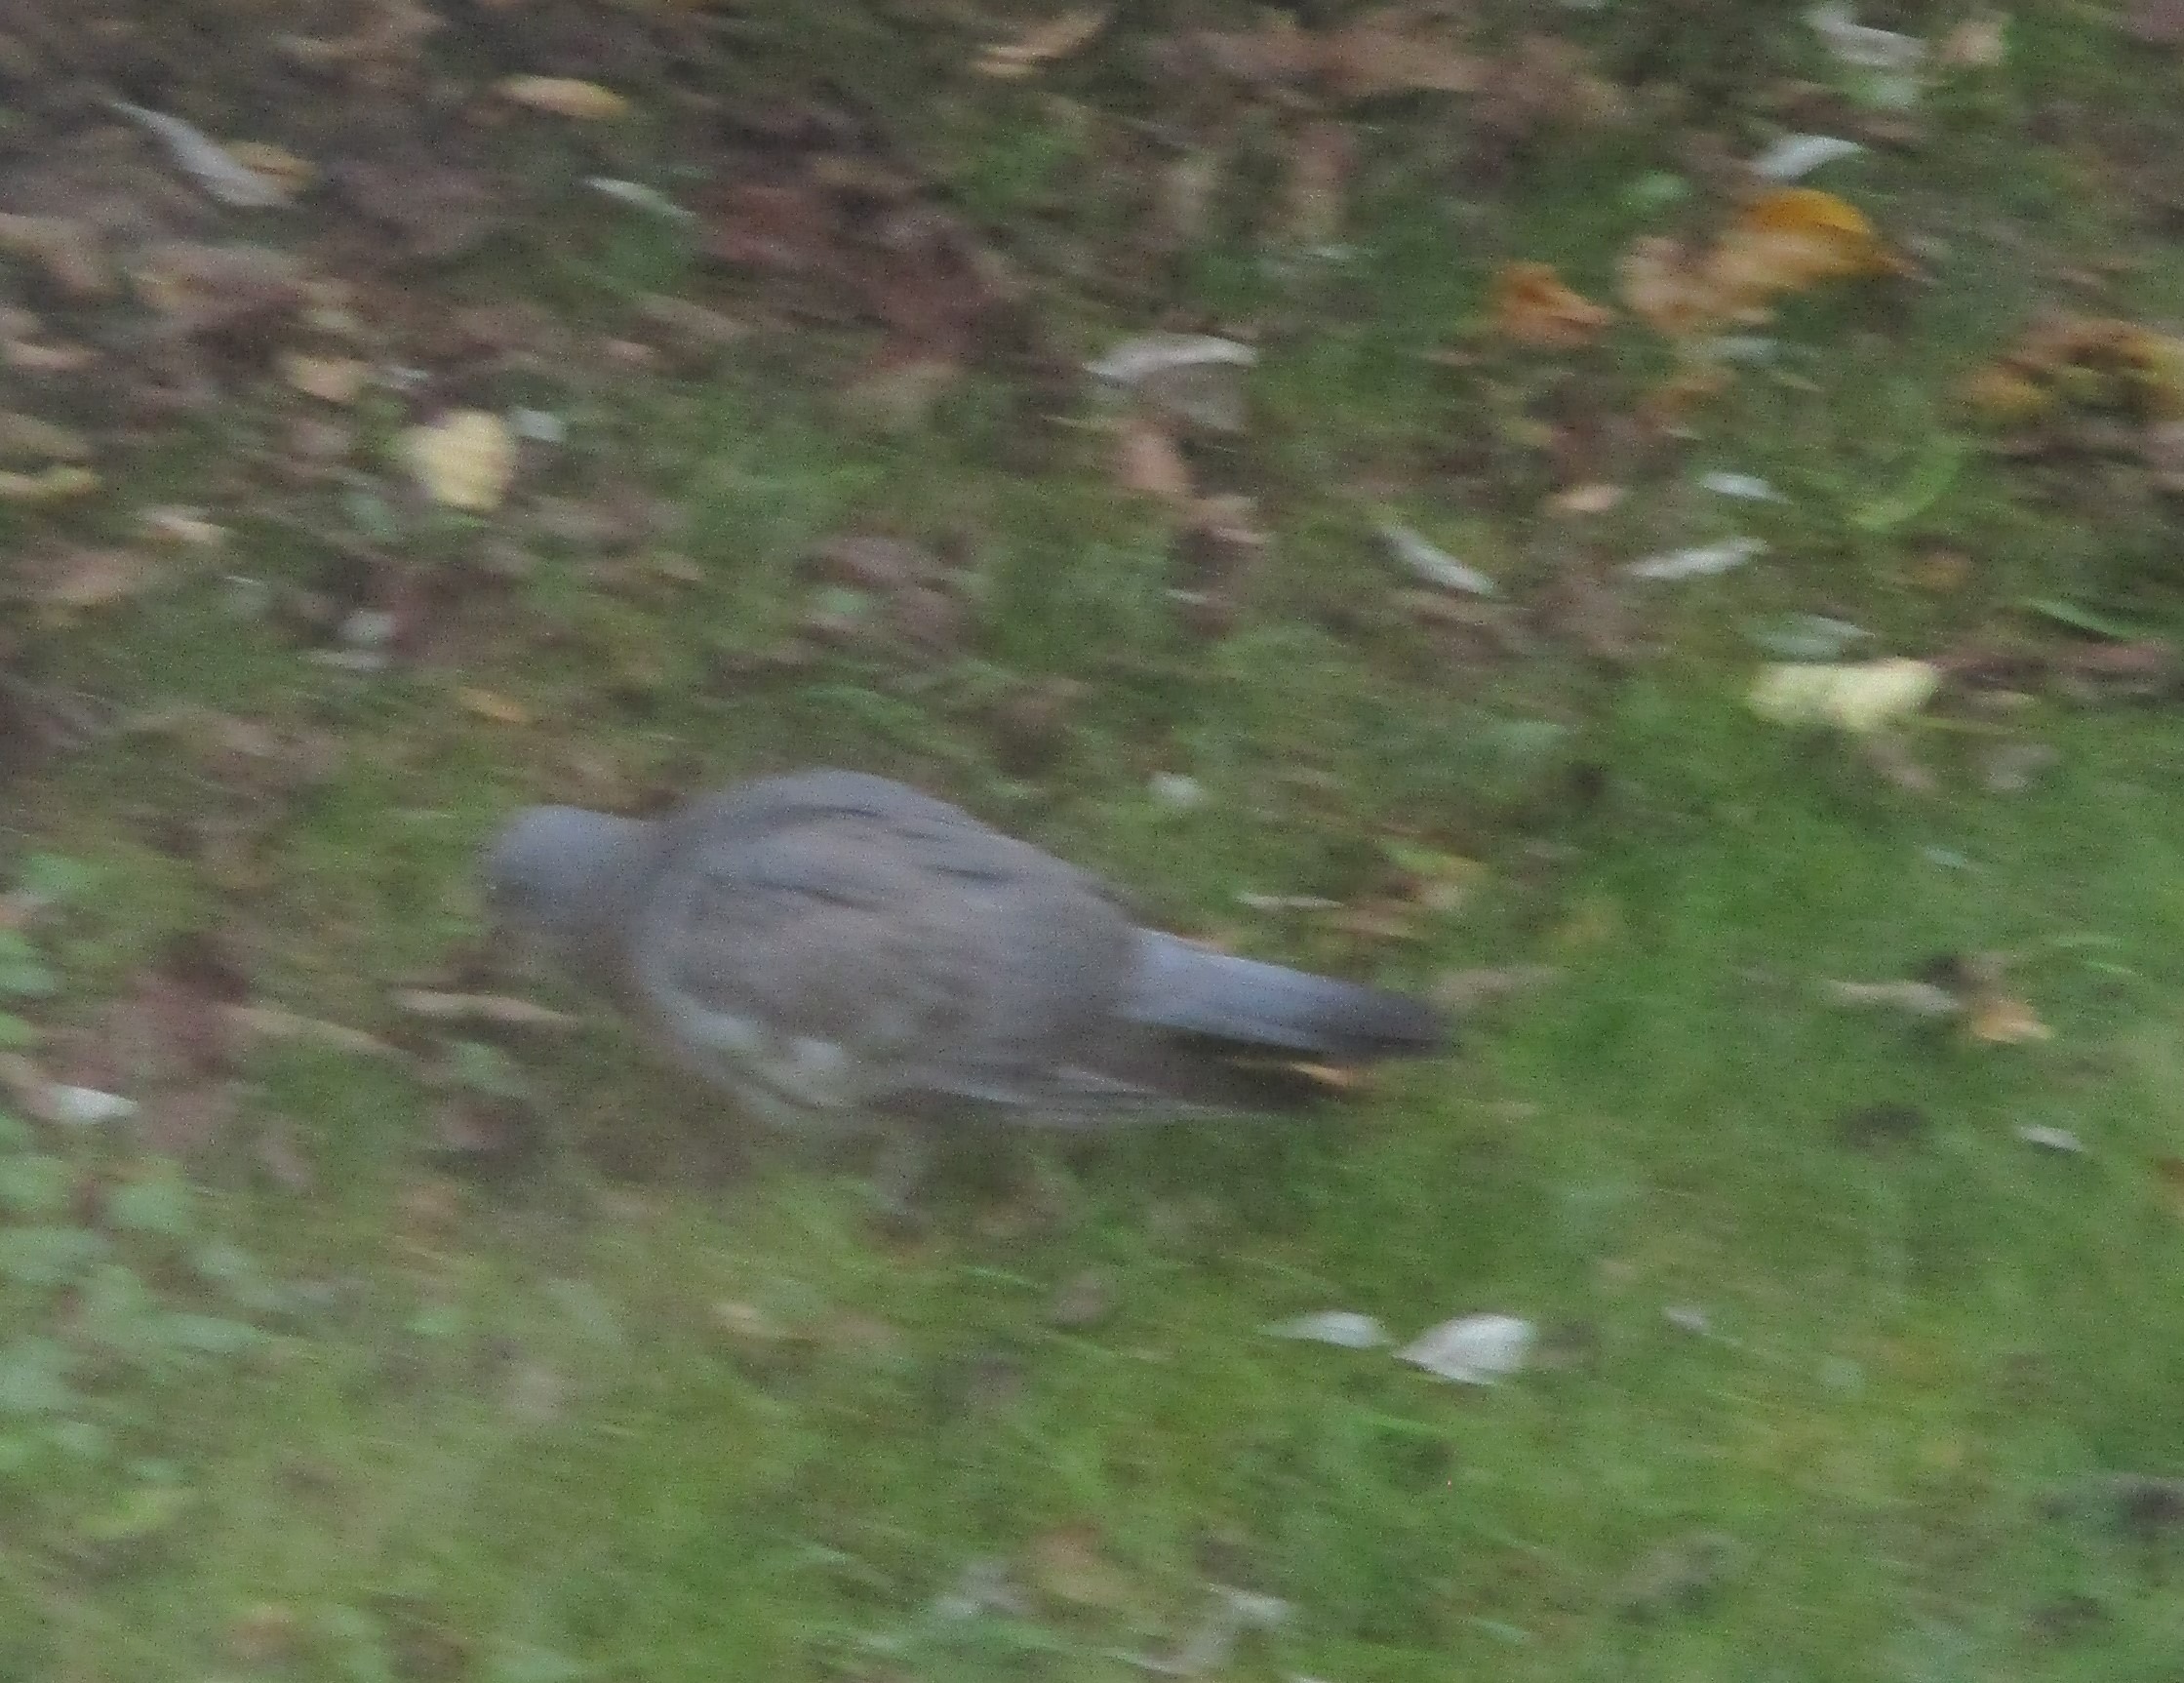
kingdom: Animalia
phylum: Chordata
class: Aves
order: Columbiformes
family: Columbidae
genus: Columba
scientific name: Columba palumbus
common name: Ringdue
